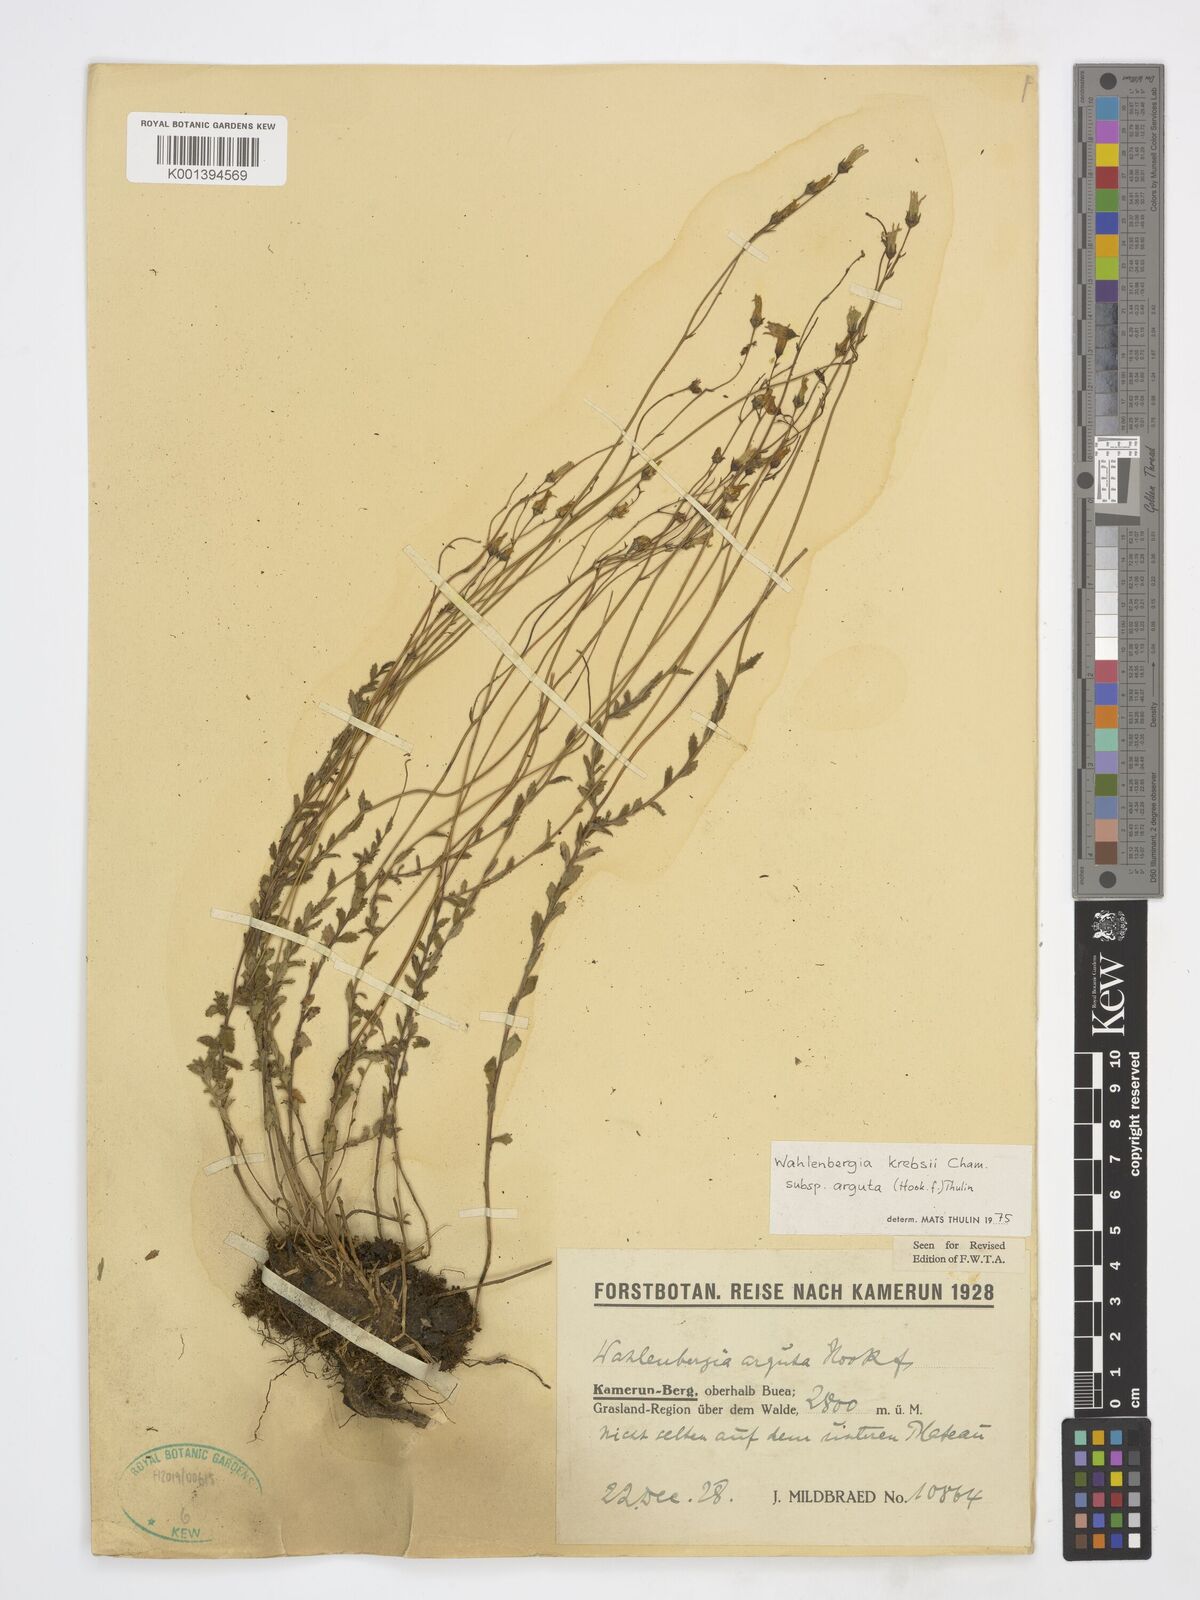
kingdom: Plantae
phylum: Tracheophyta
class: Magnoliopsida
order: Asterales
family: Campanulaceae
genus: Wahlenbergia
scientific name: Wahlenbergia krebsii
